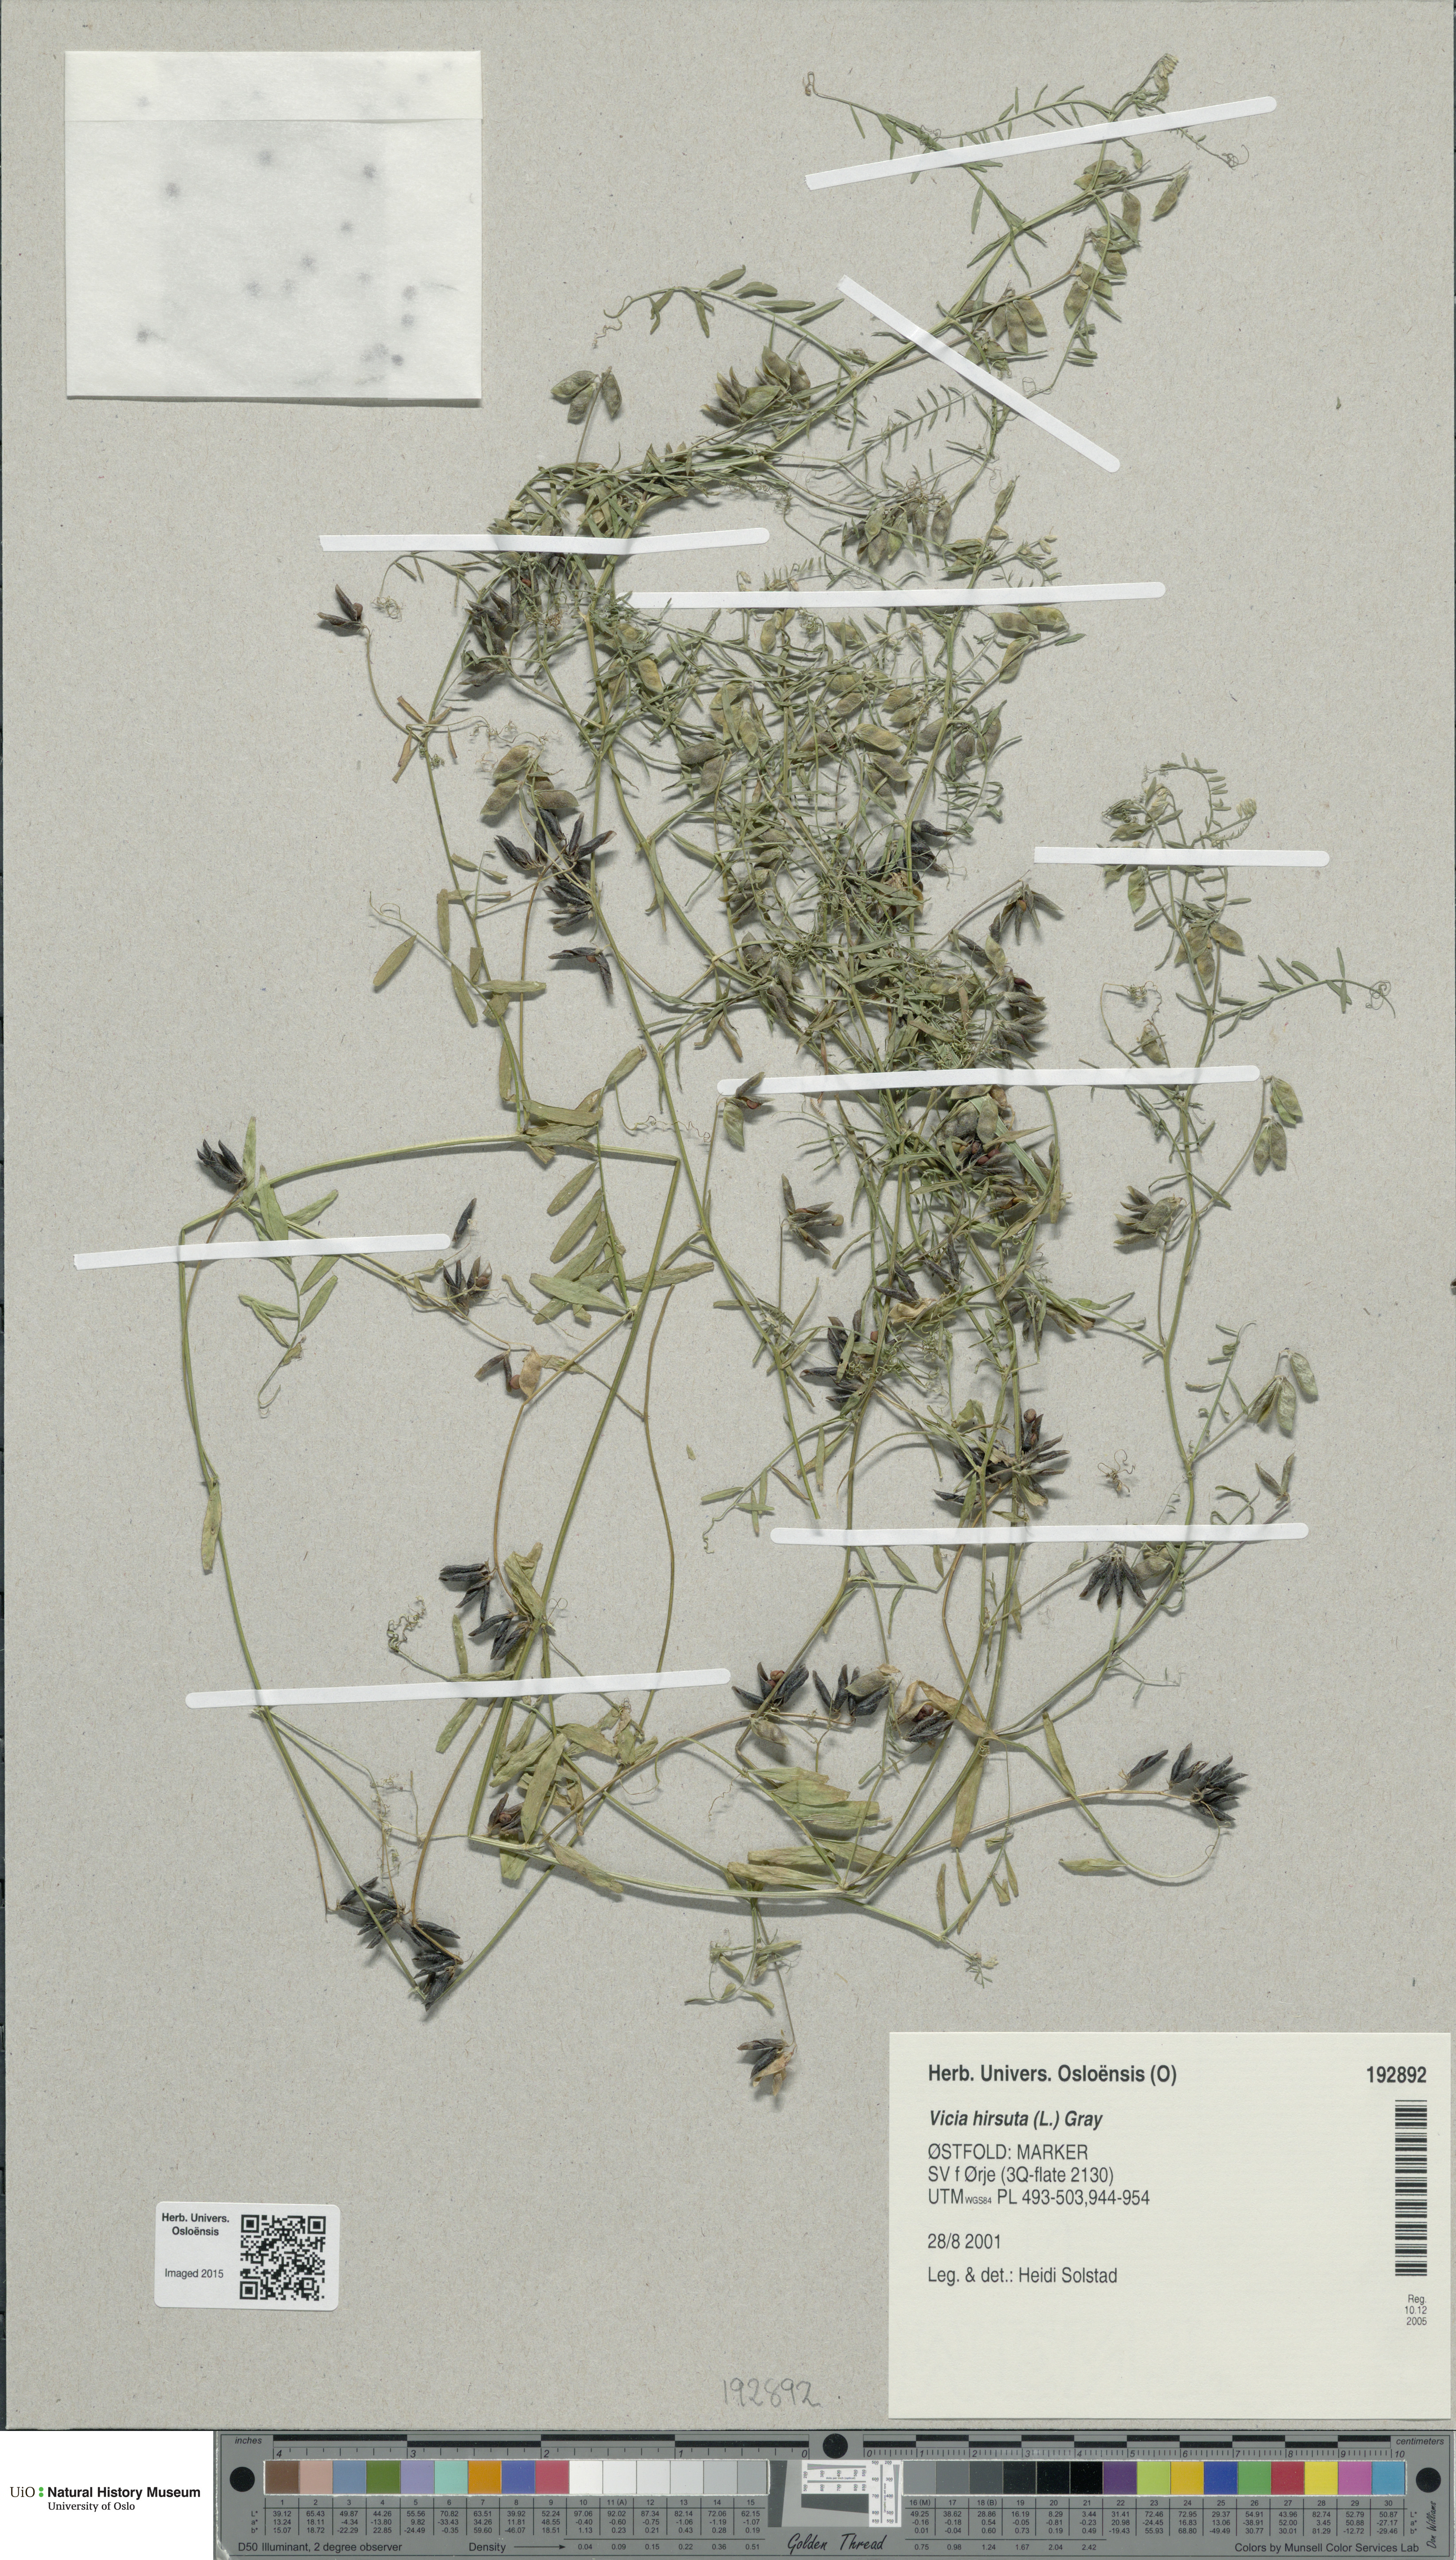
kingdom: Plantae
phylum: Tracheophyta
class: Magnoliopsida
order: Fabales
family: Fabaceae
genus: Vicia
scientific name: Vicia hirsuta
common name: Tiny vetch
